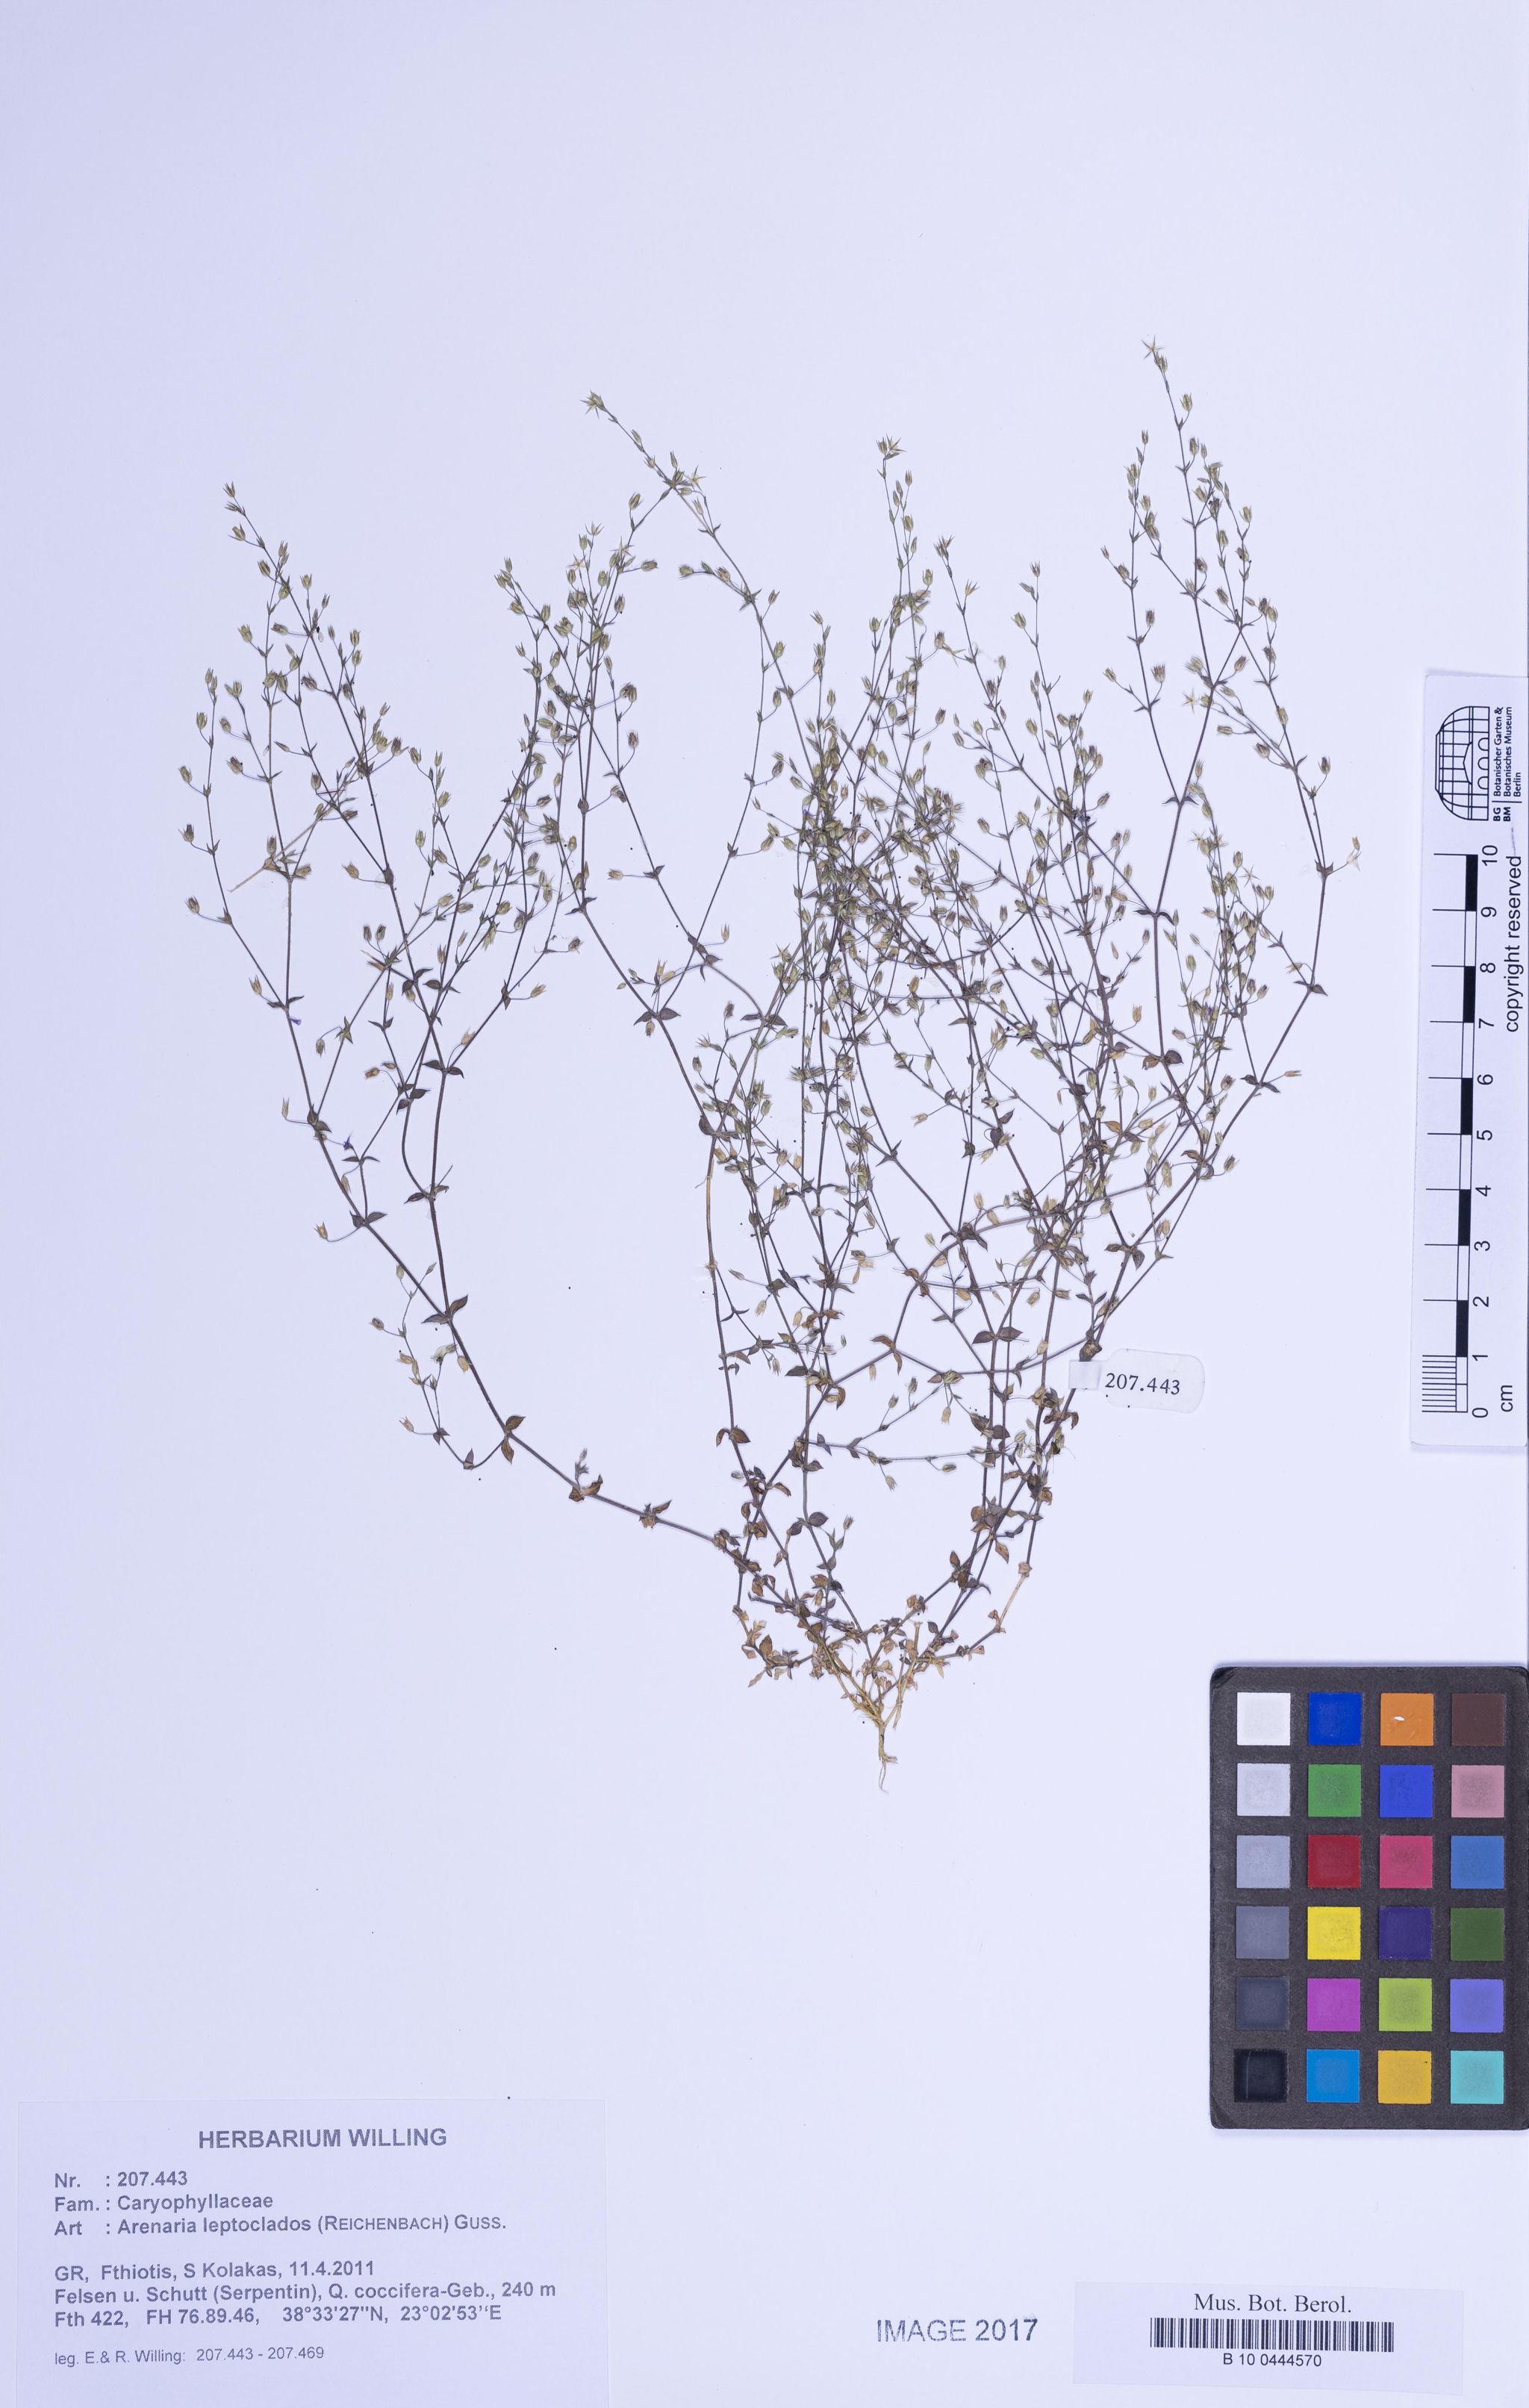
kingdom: Plantae
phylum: Tracheophyta
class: Magnoliopsida
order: Caryophyllales
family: Caryophyllaceae
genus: Arenaria
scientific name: Arenaria leptoclados
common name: Thyme-leaved sandwort
